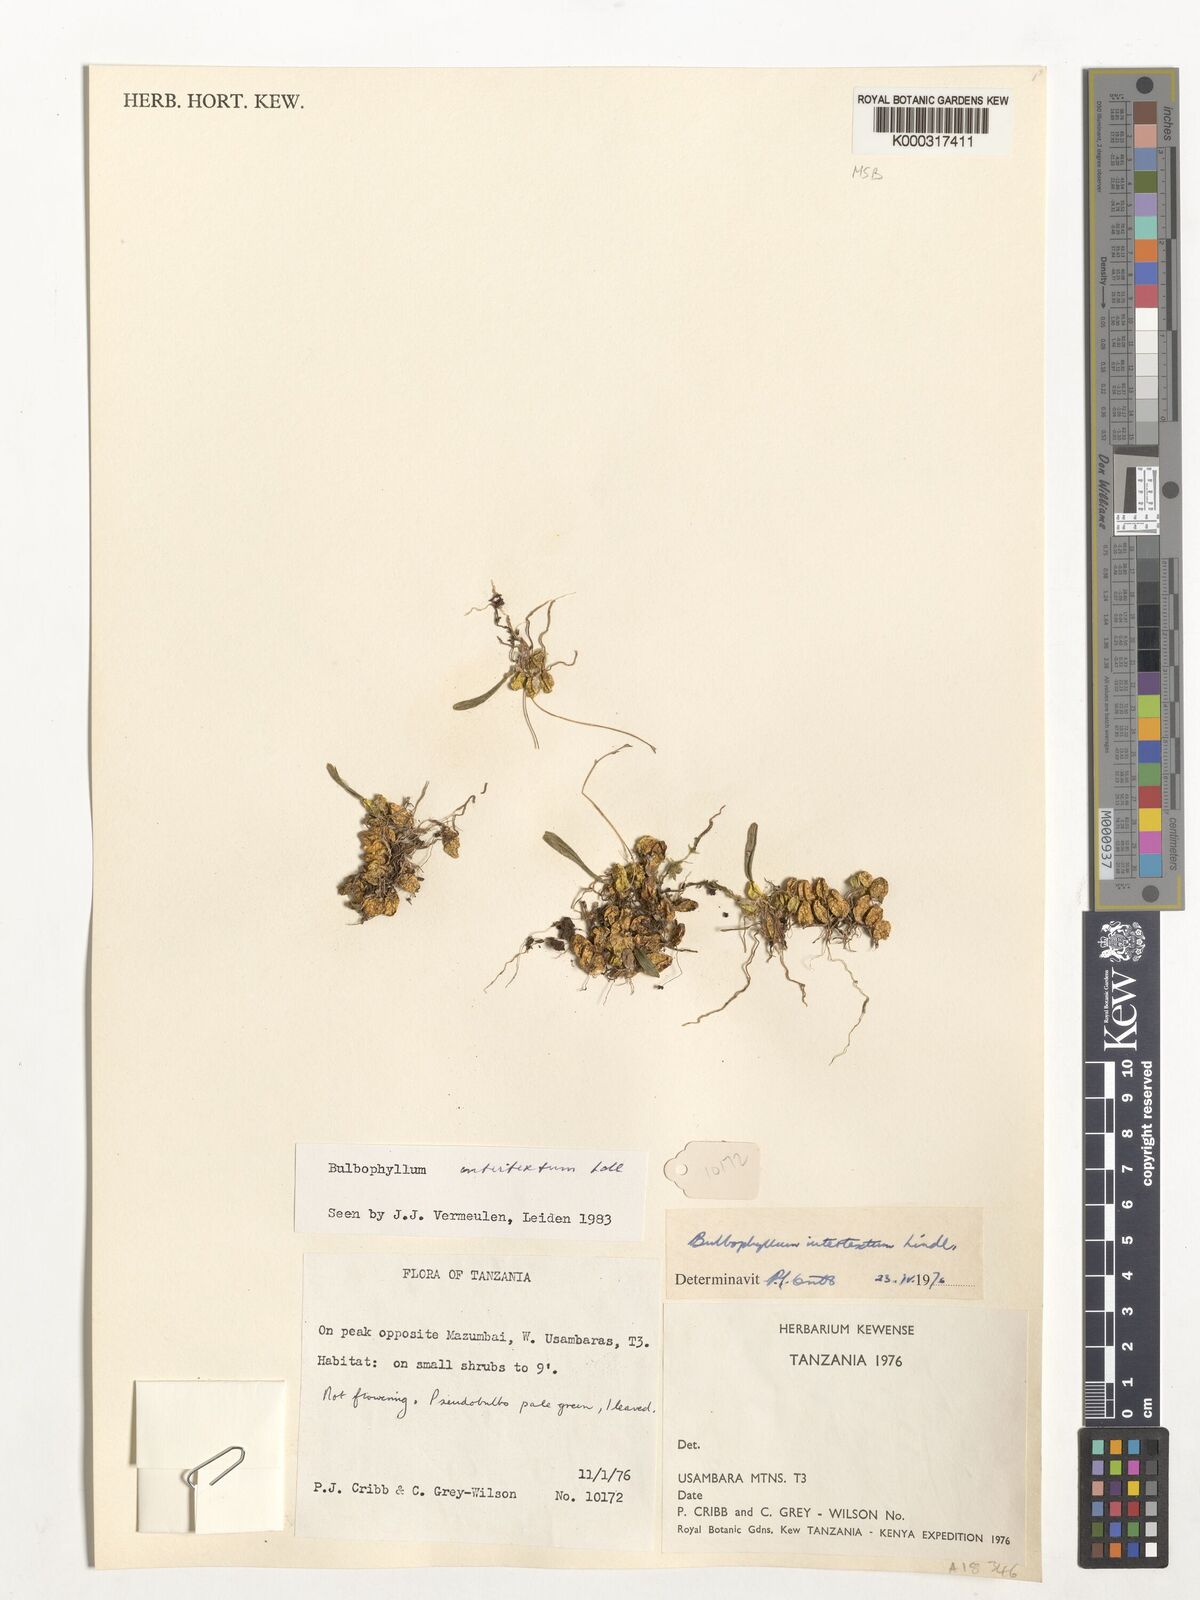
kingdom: Plantae
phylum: Tracheophyta
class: Liliopsida
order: Asparagales
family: Orchidaceae
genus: Bulbophyllum
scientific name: Bulbophyllum intertextum
